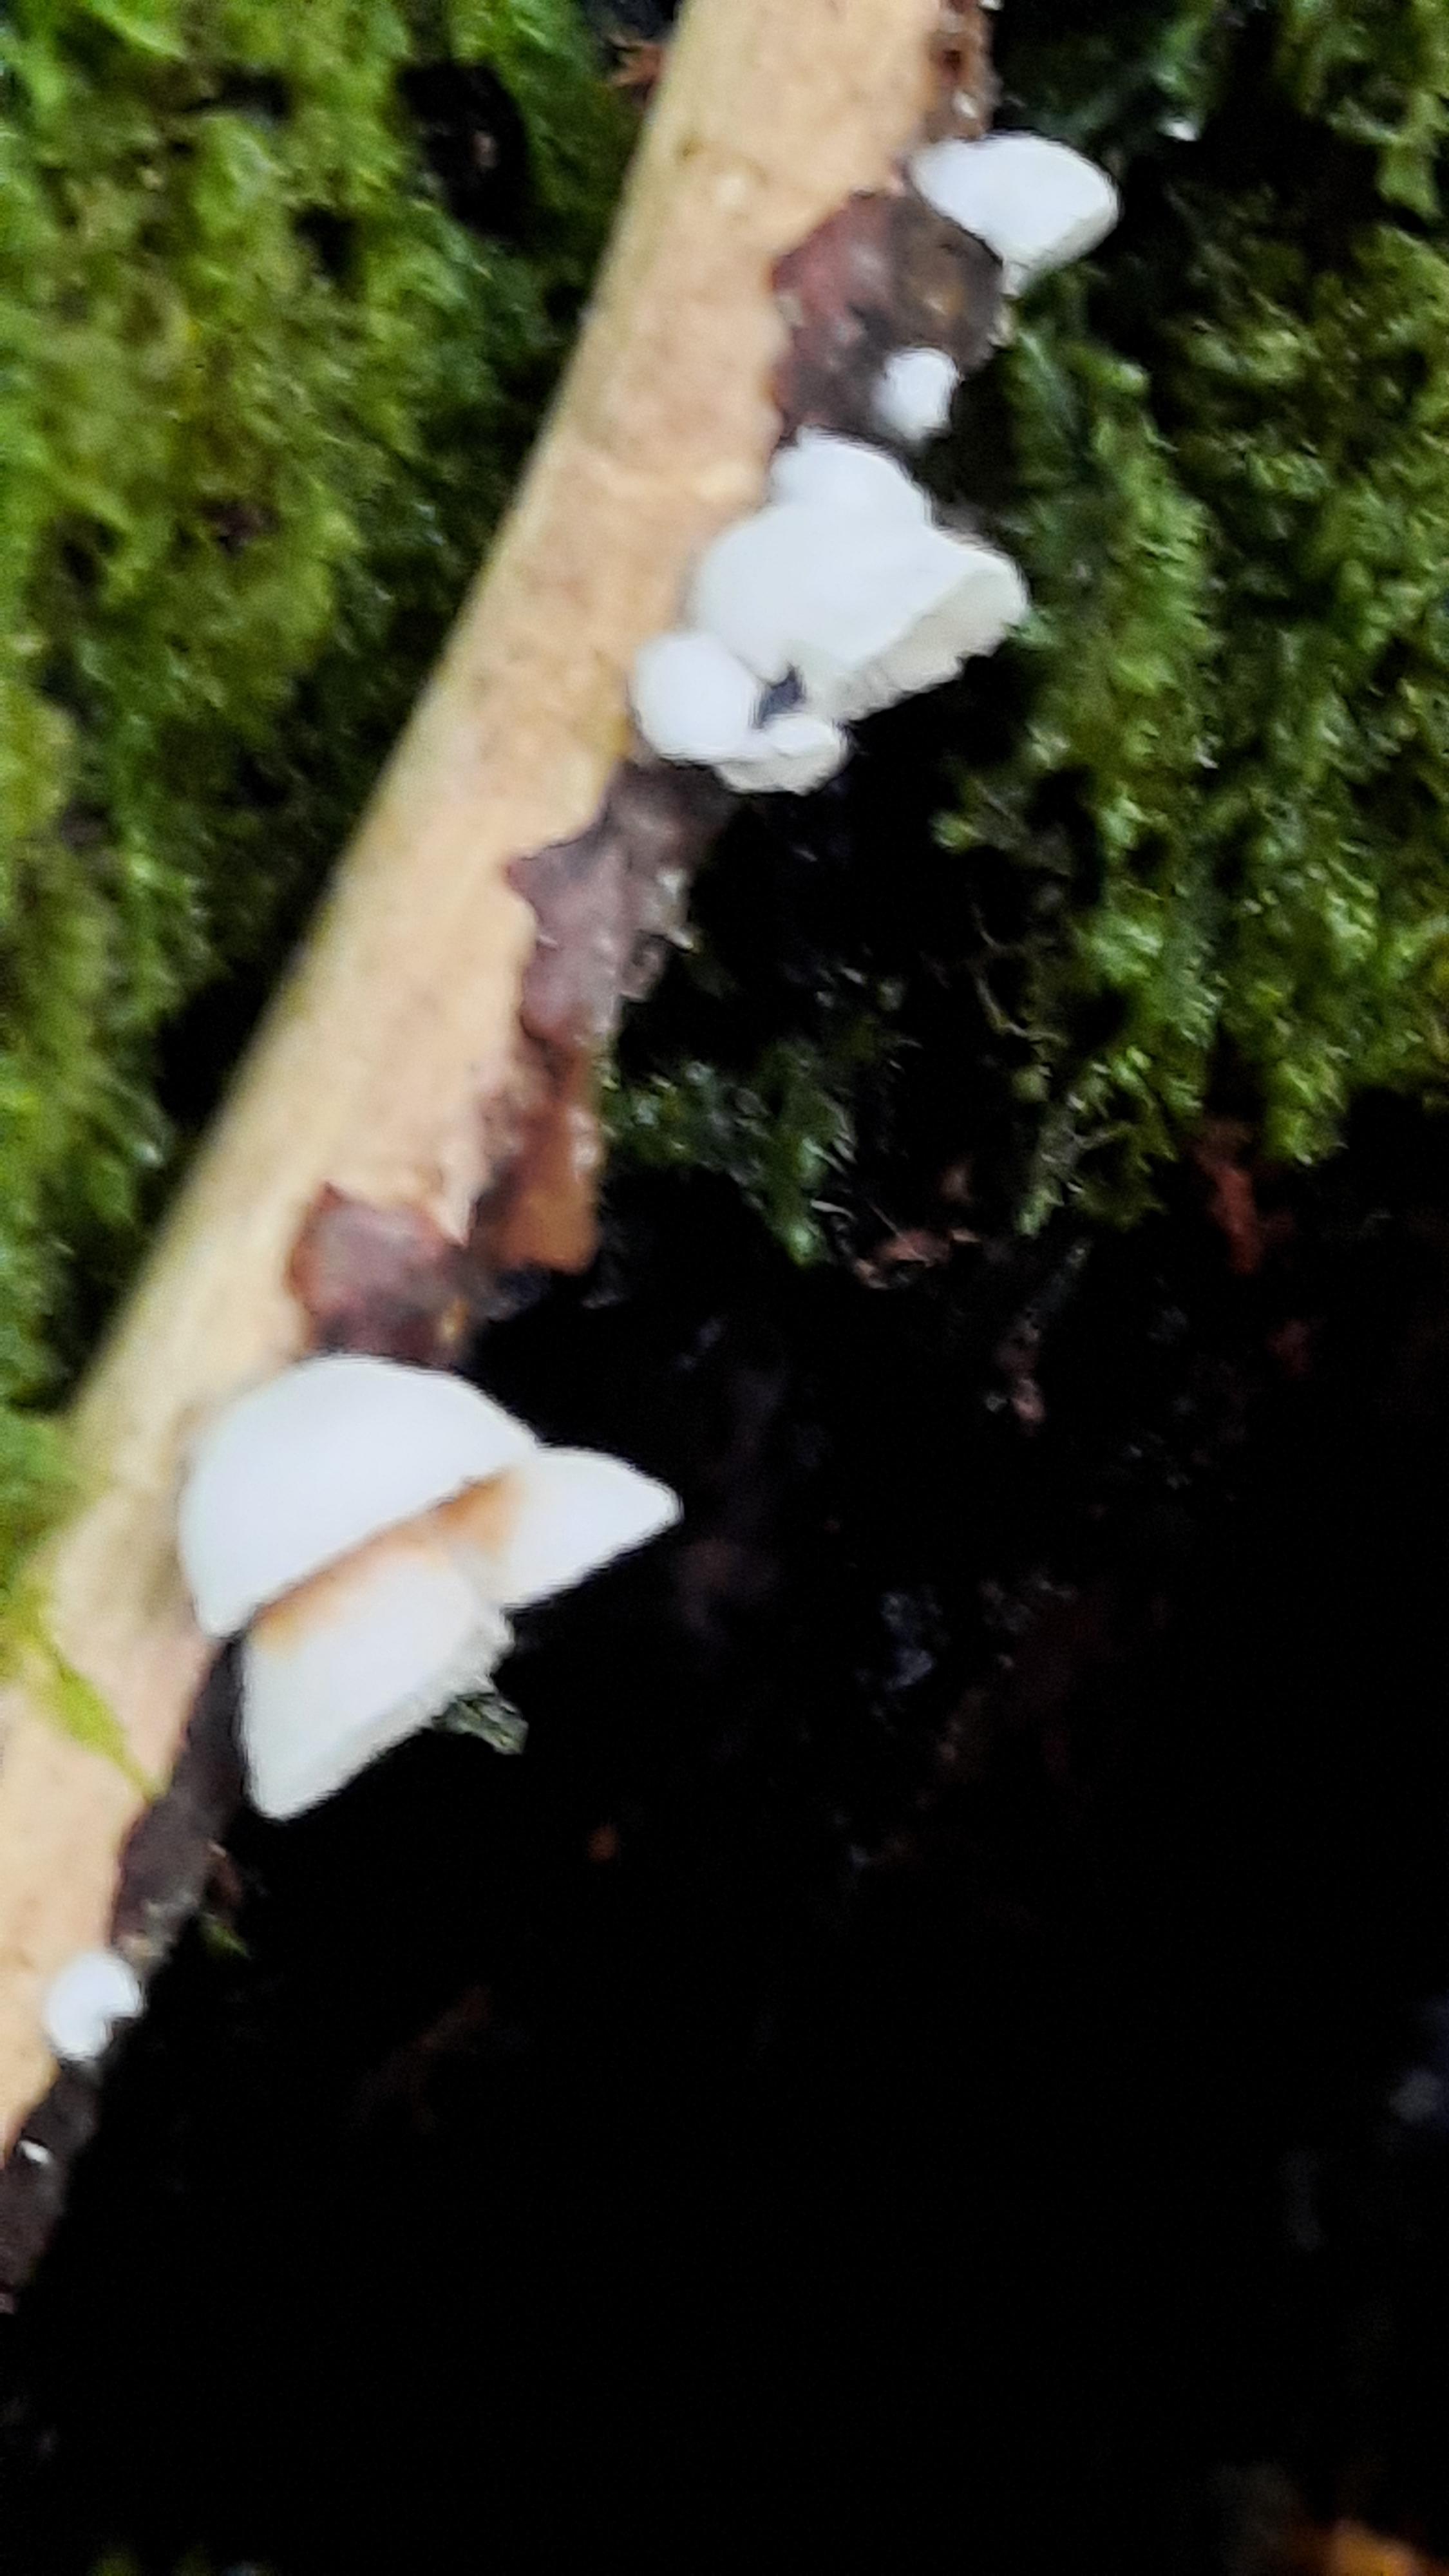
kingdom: Fungi
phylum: Basidiomycota
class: Agaricomycetes
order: Agaricales
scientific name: Agaricales
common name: champignonordenen
